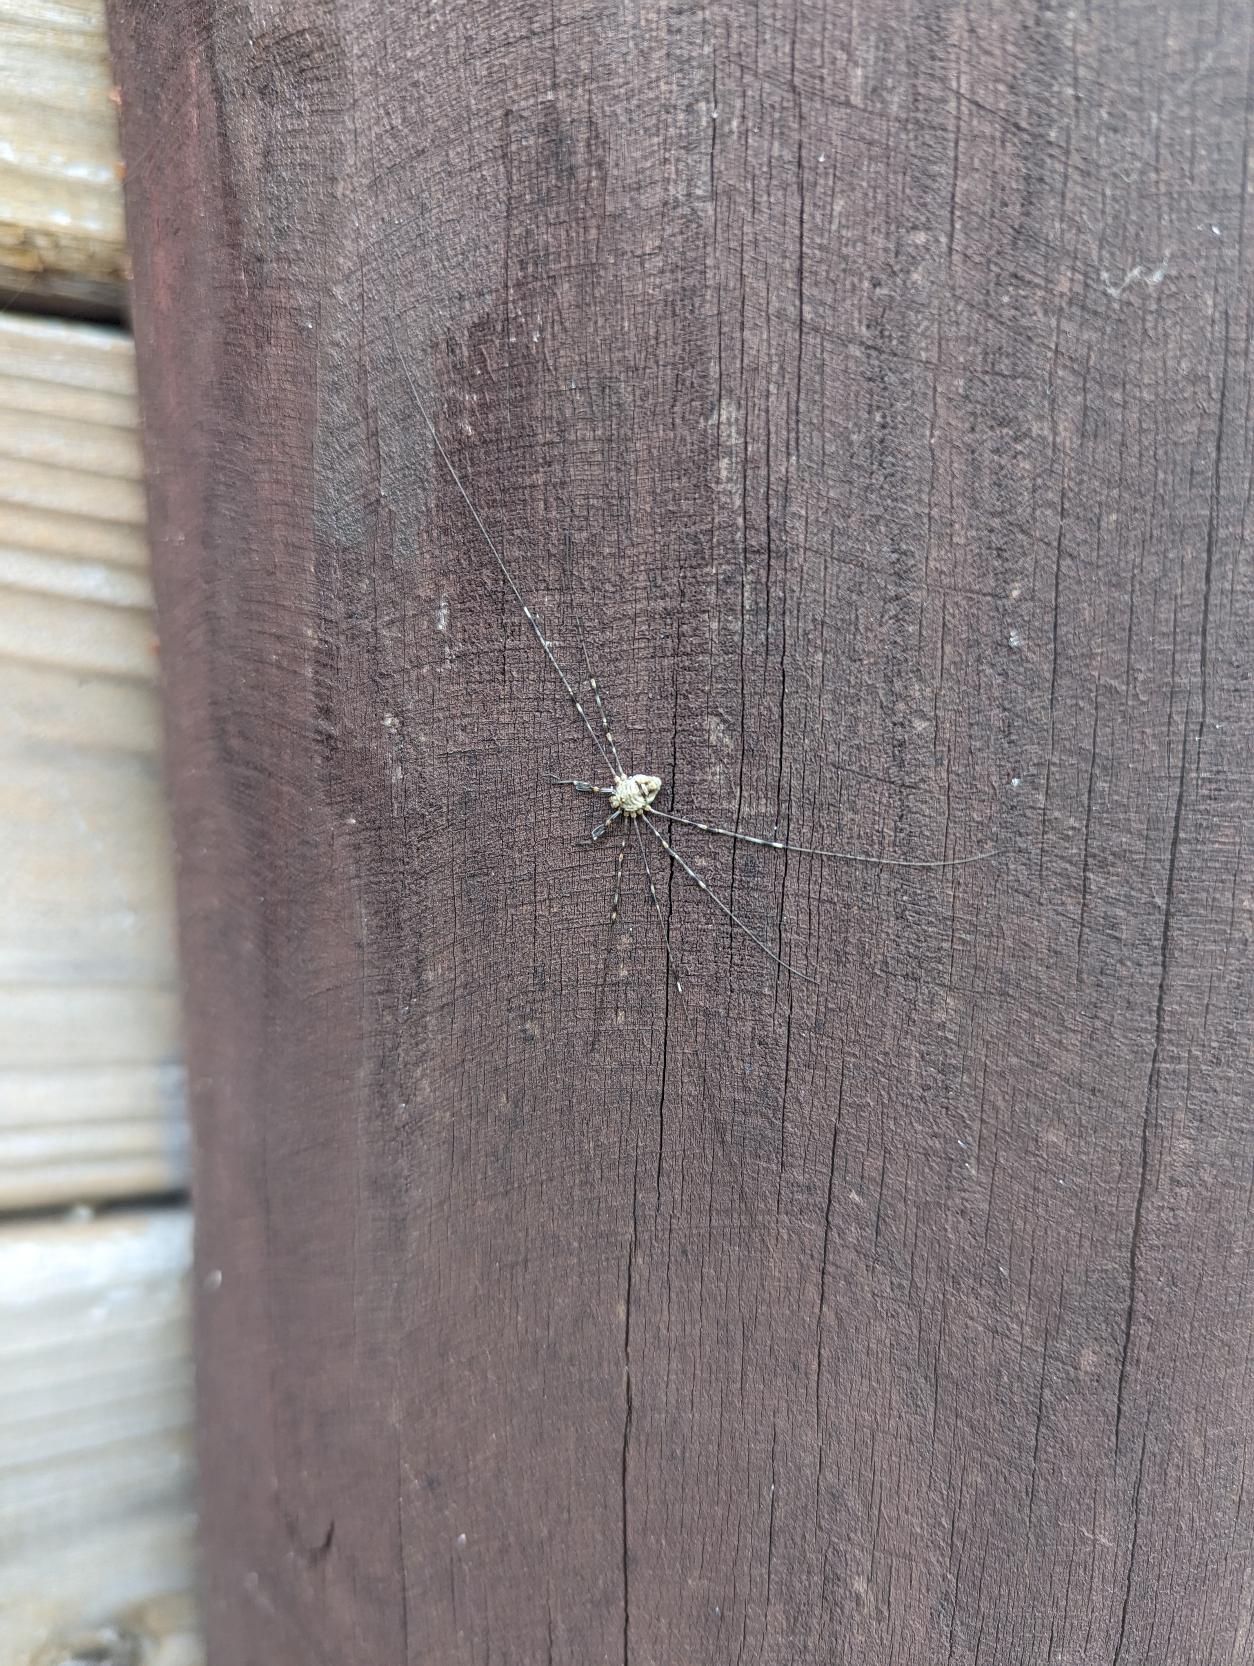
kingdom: Animalia
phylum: Arthropoda
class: Arachnida
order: Opiliones
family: Phalangiidae
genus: Dicranopalpus
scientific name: Dicranopalpus ramosus
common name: Gaffelmejer
